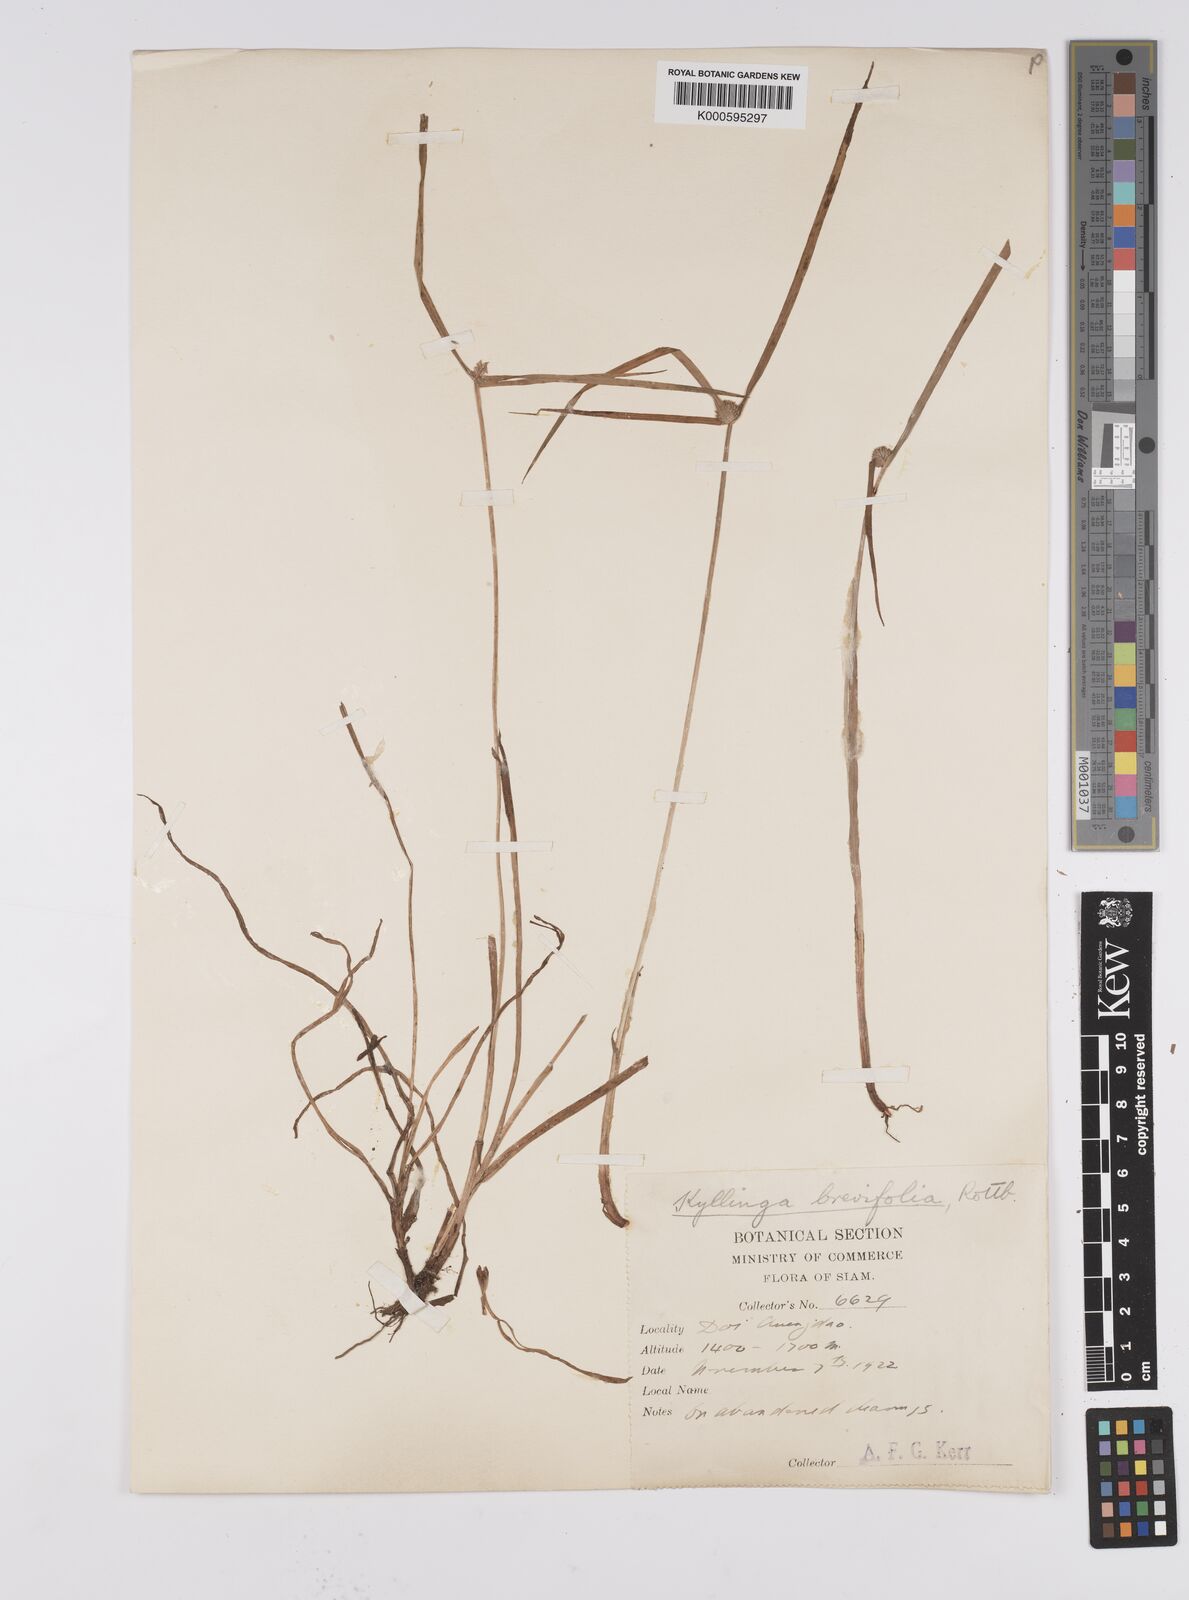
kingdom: Plantae
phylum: Tracheophyta
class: Liliopsida
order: Poales
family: Cyperaceae
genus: Cyperus
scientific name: Cyperus brevifolius
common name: Globe kyllinga
